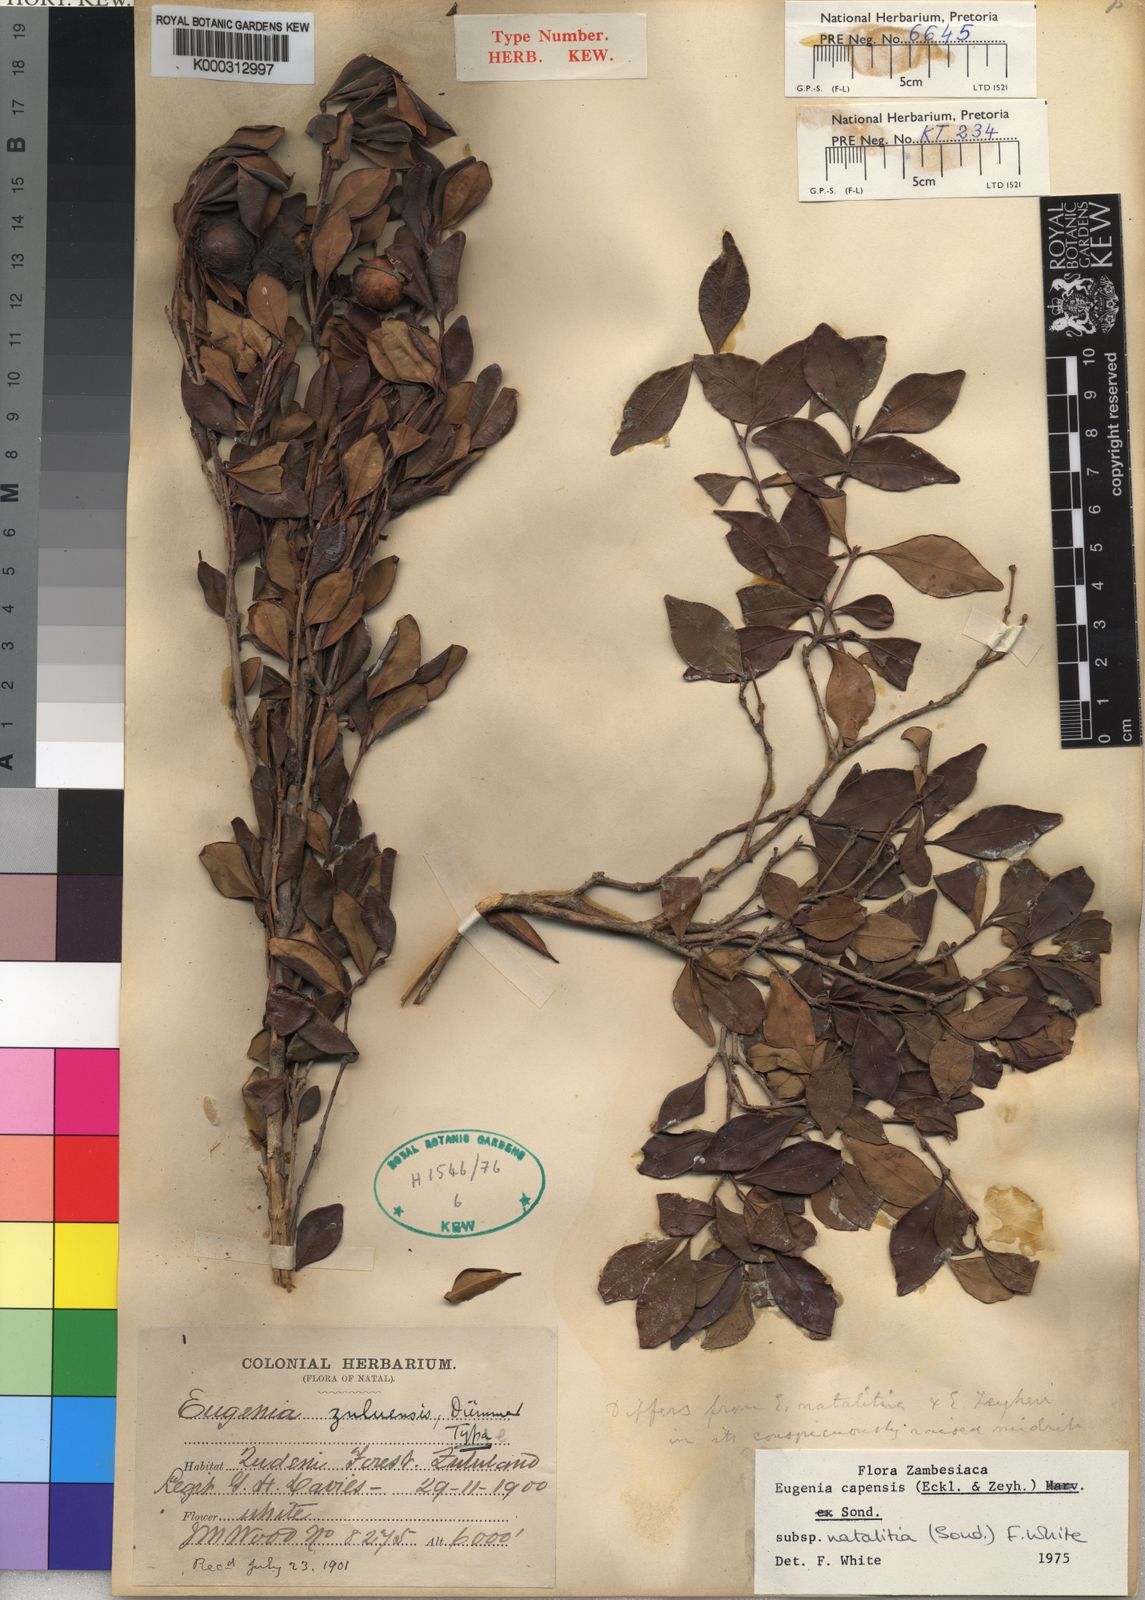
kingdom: Plantae
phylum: Tracheophyta
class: Magnoliopsida
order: Myrtales
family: Myrtaceae
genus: Eugenia
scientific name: Eugenia natalitia
